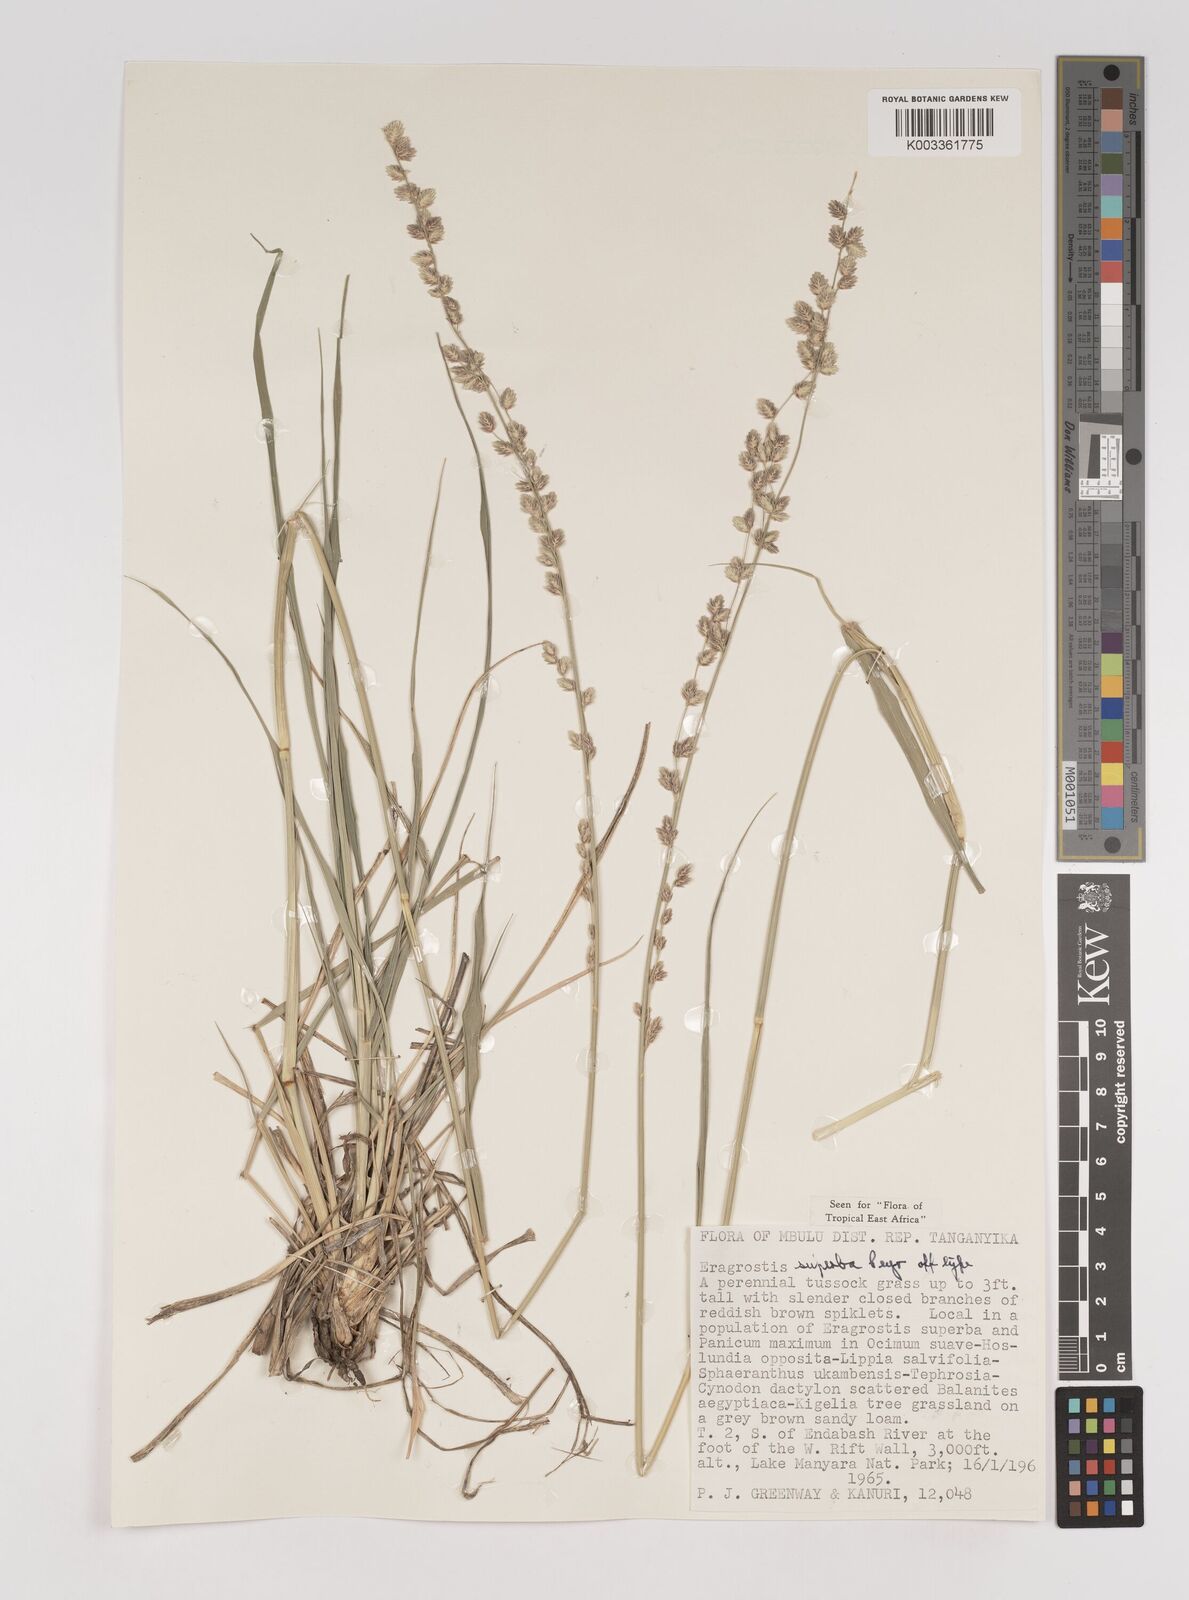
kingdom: Plantae
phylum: Tracheophyta
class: Liliopsida
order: Poales
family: Poaceae
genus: Eragrostis
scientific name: Eragrostis superba
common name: Wilman lovegrass
